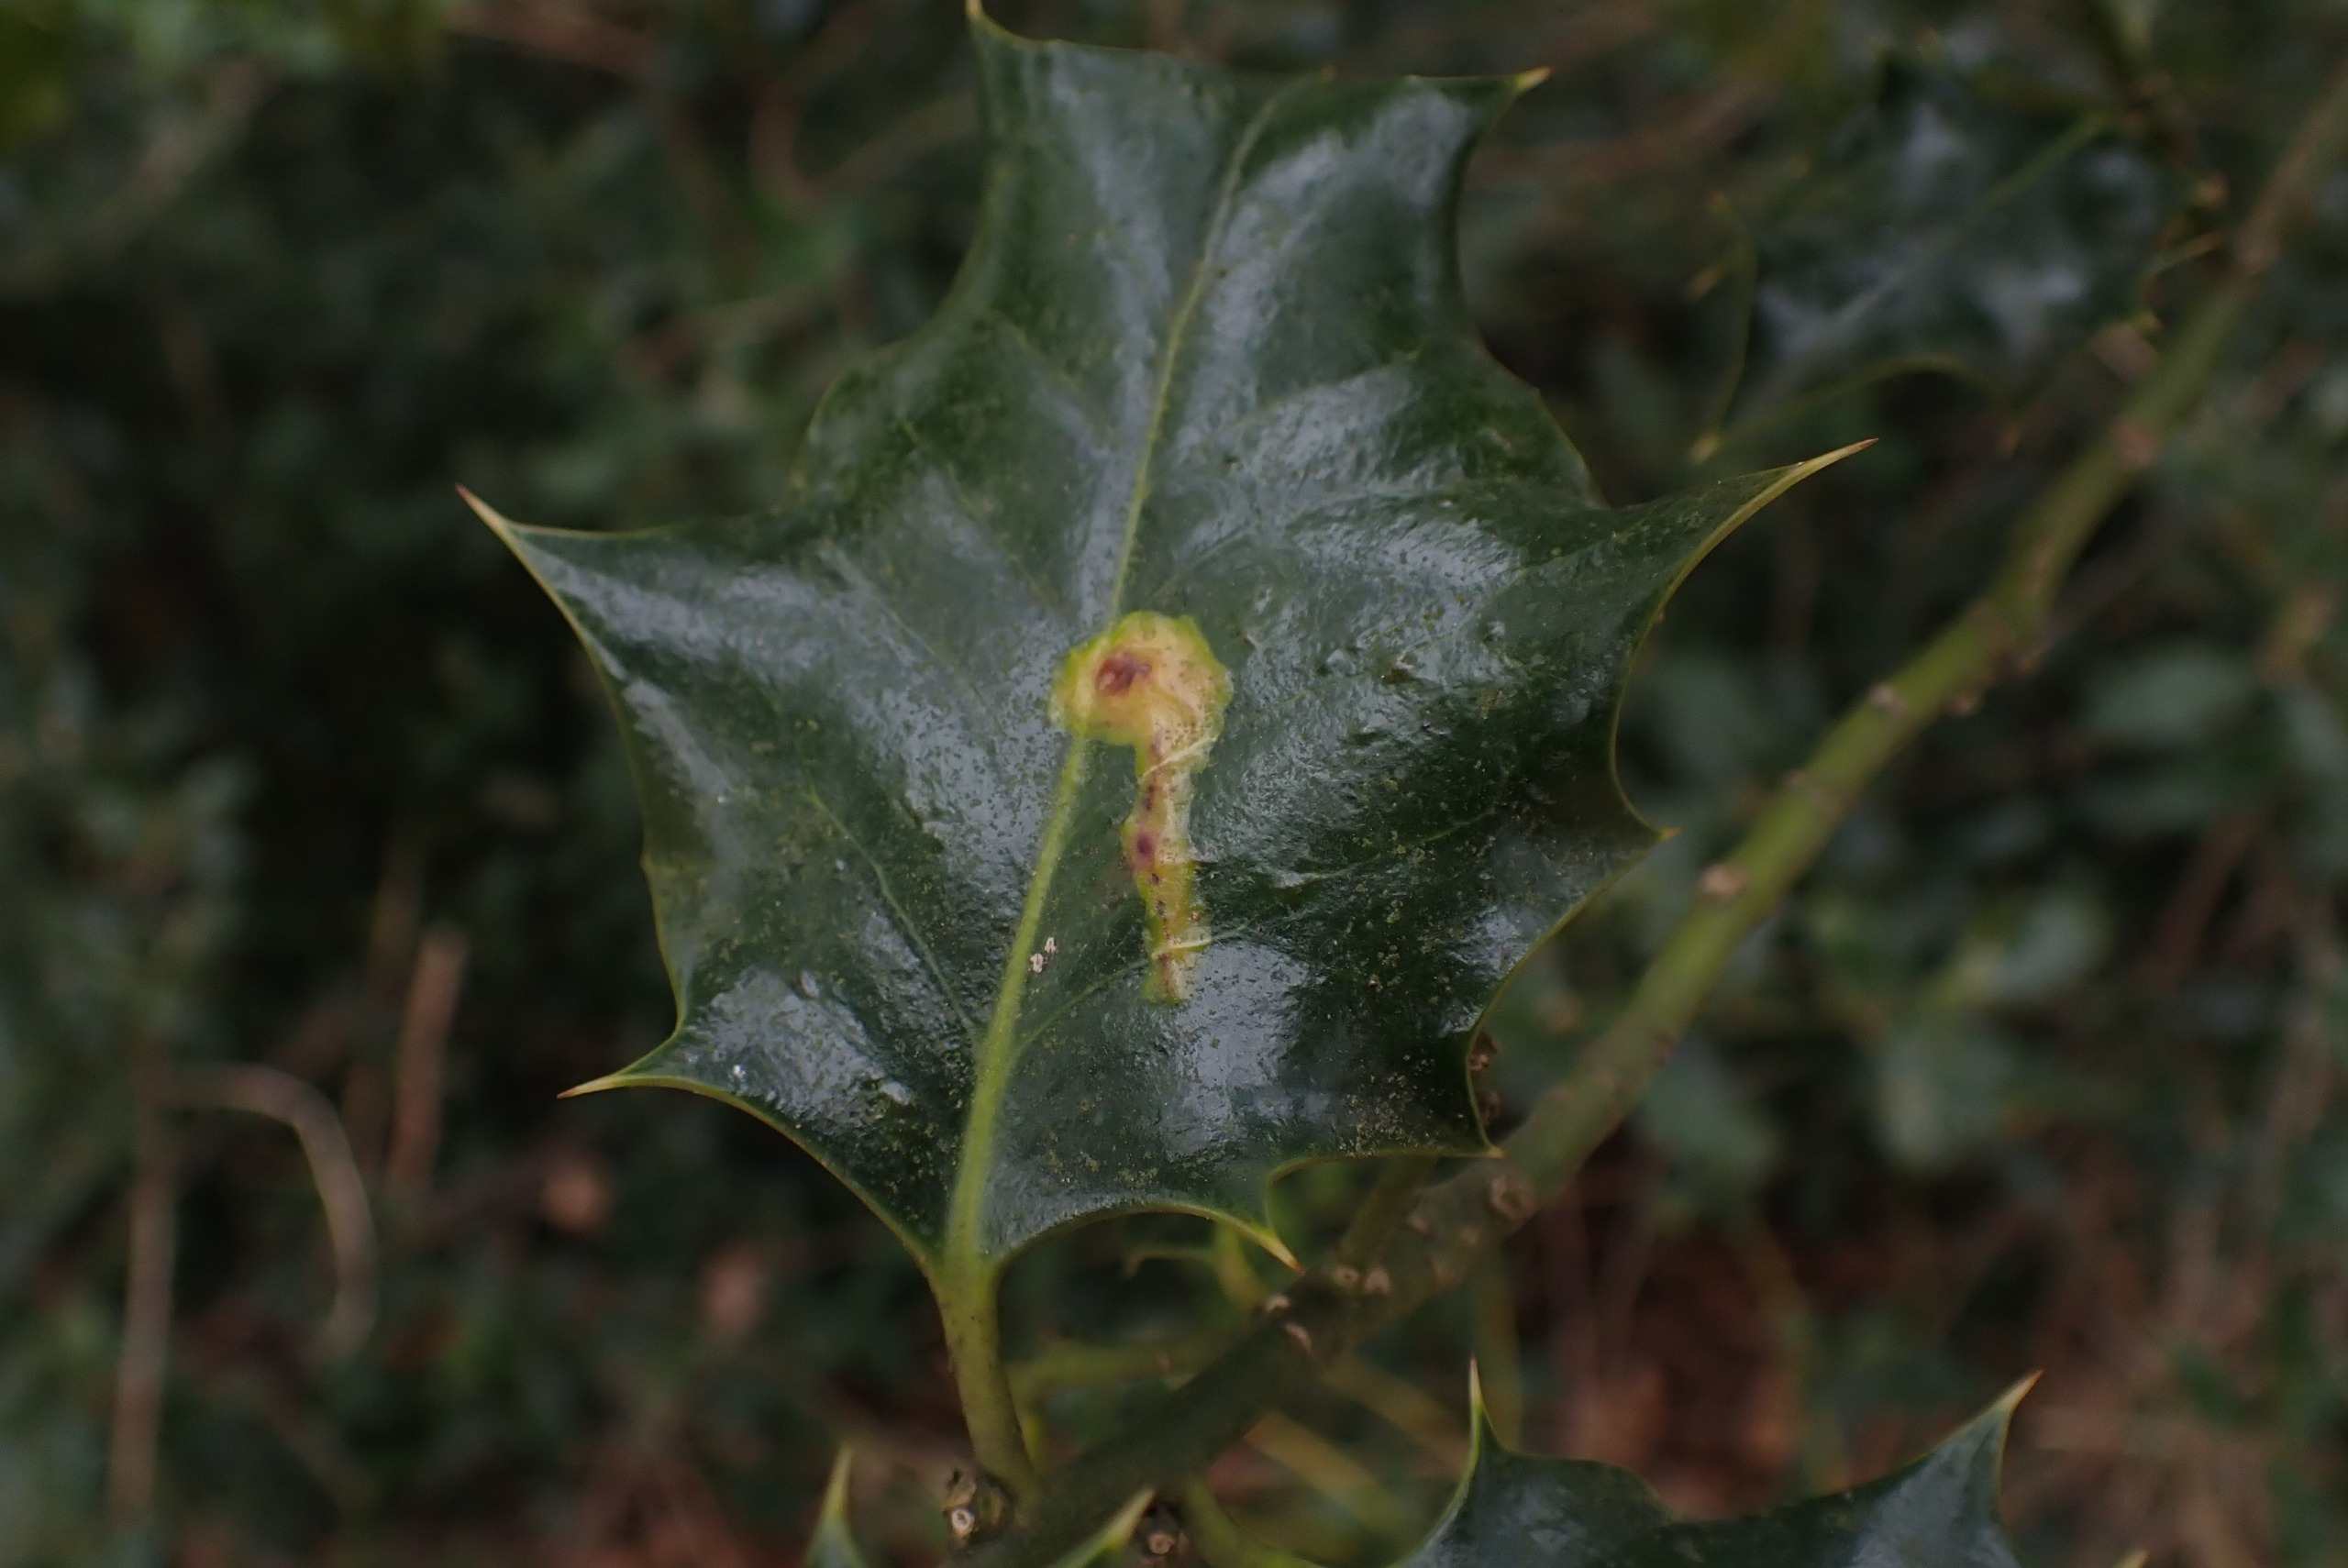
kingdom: Animalia
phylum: Arthropoda
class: Insecta
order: Diptera
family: Agromyzidae
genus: Phytomyza
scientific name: Phytomyza ilicis
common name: Kristtornminérflue
